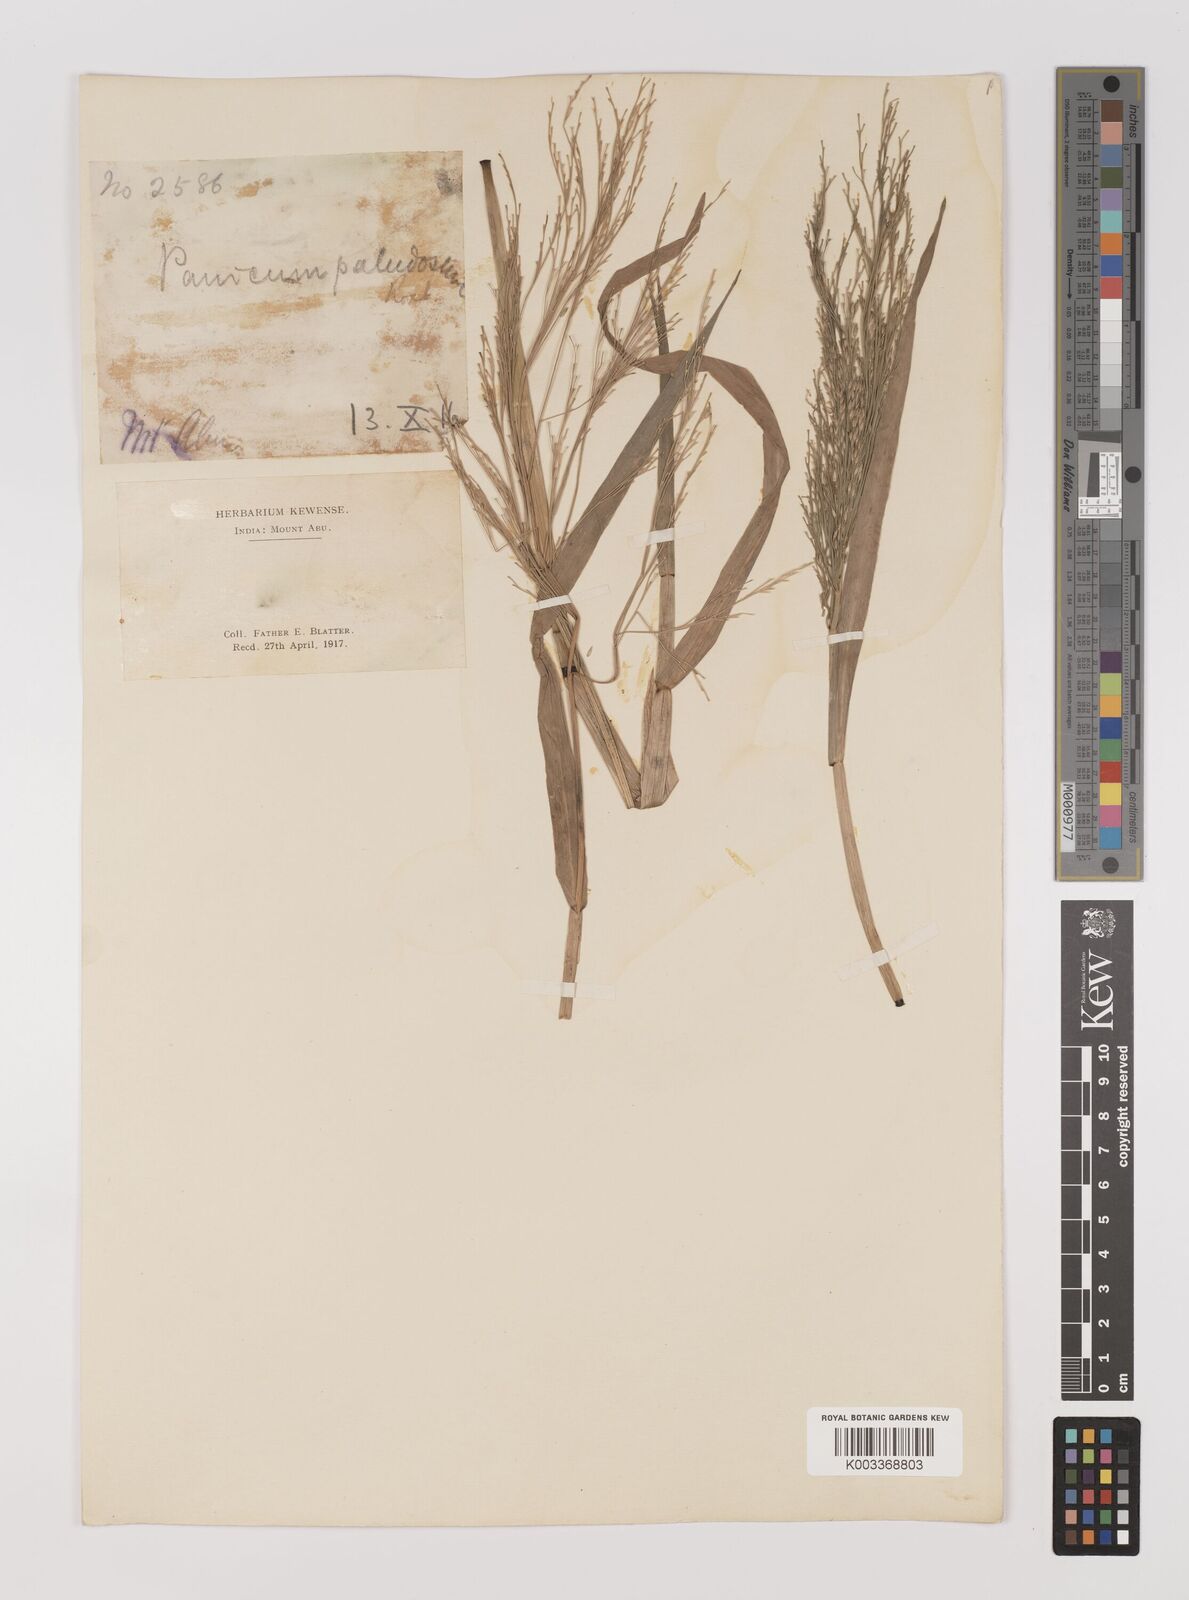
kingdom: Plantae
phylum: Tracheophyta
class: Liliopsida
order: Poales
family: Poaceae
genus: Louisiella
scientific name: Louisiella paludosa
